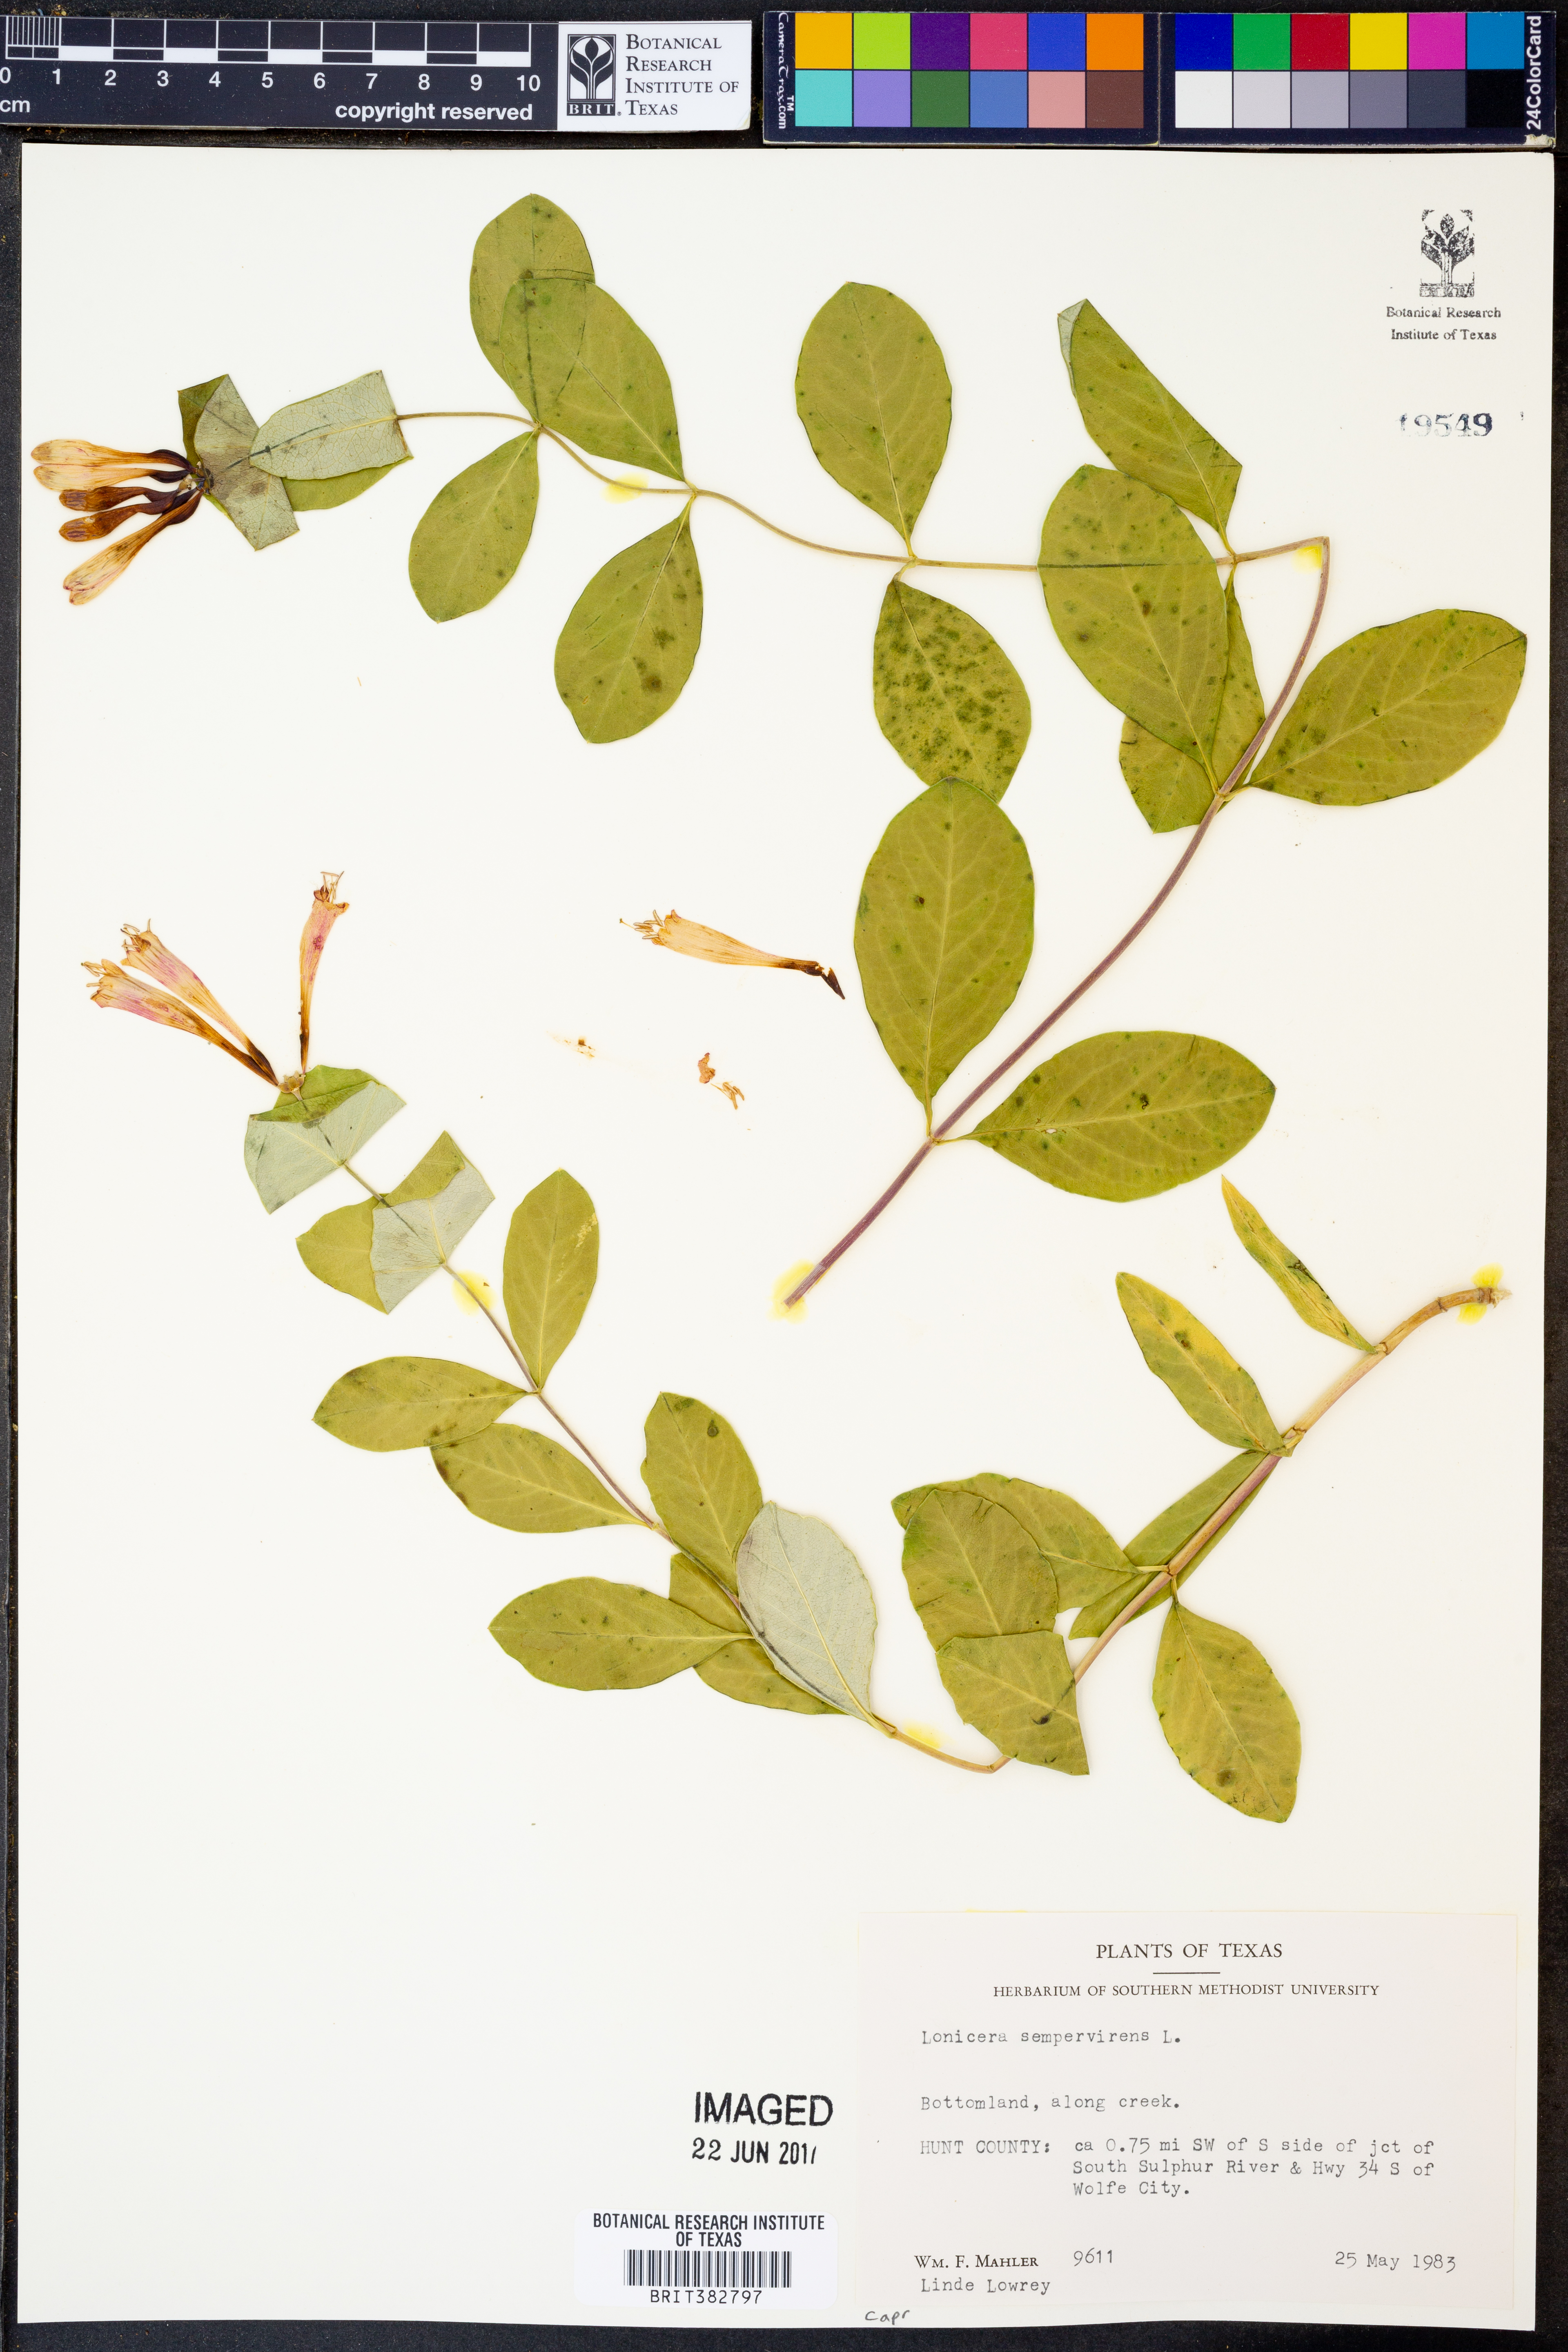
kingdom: Plantae
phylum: Tracheophyta
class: Magnoliopsida
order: Dipsacales
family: Caprifoliaceae
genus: Lonicera
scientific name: Lonicera sempervirens
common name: Coral honeysuckle
